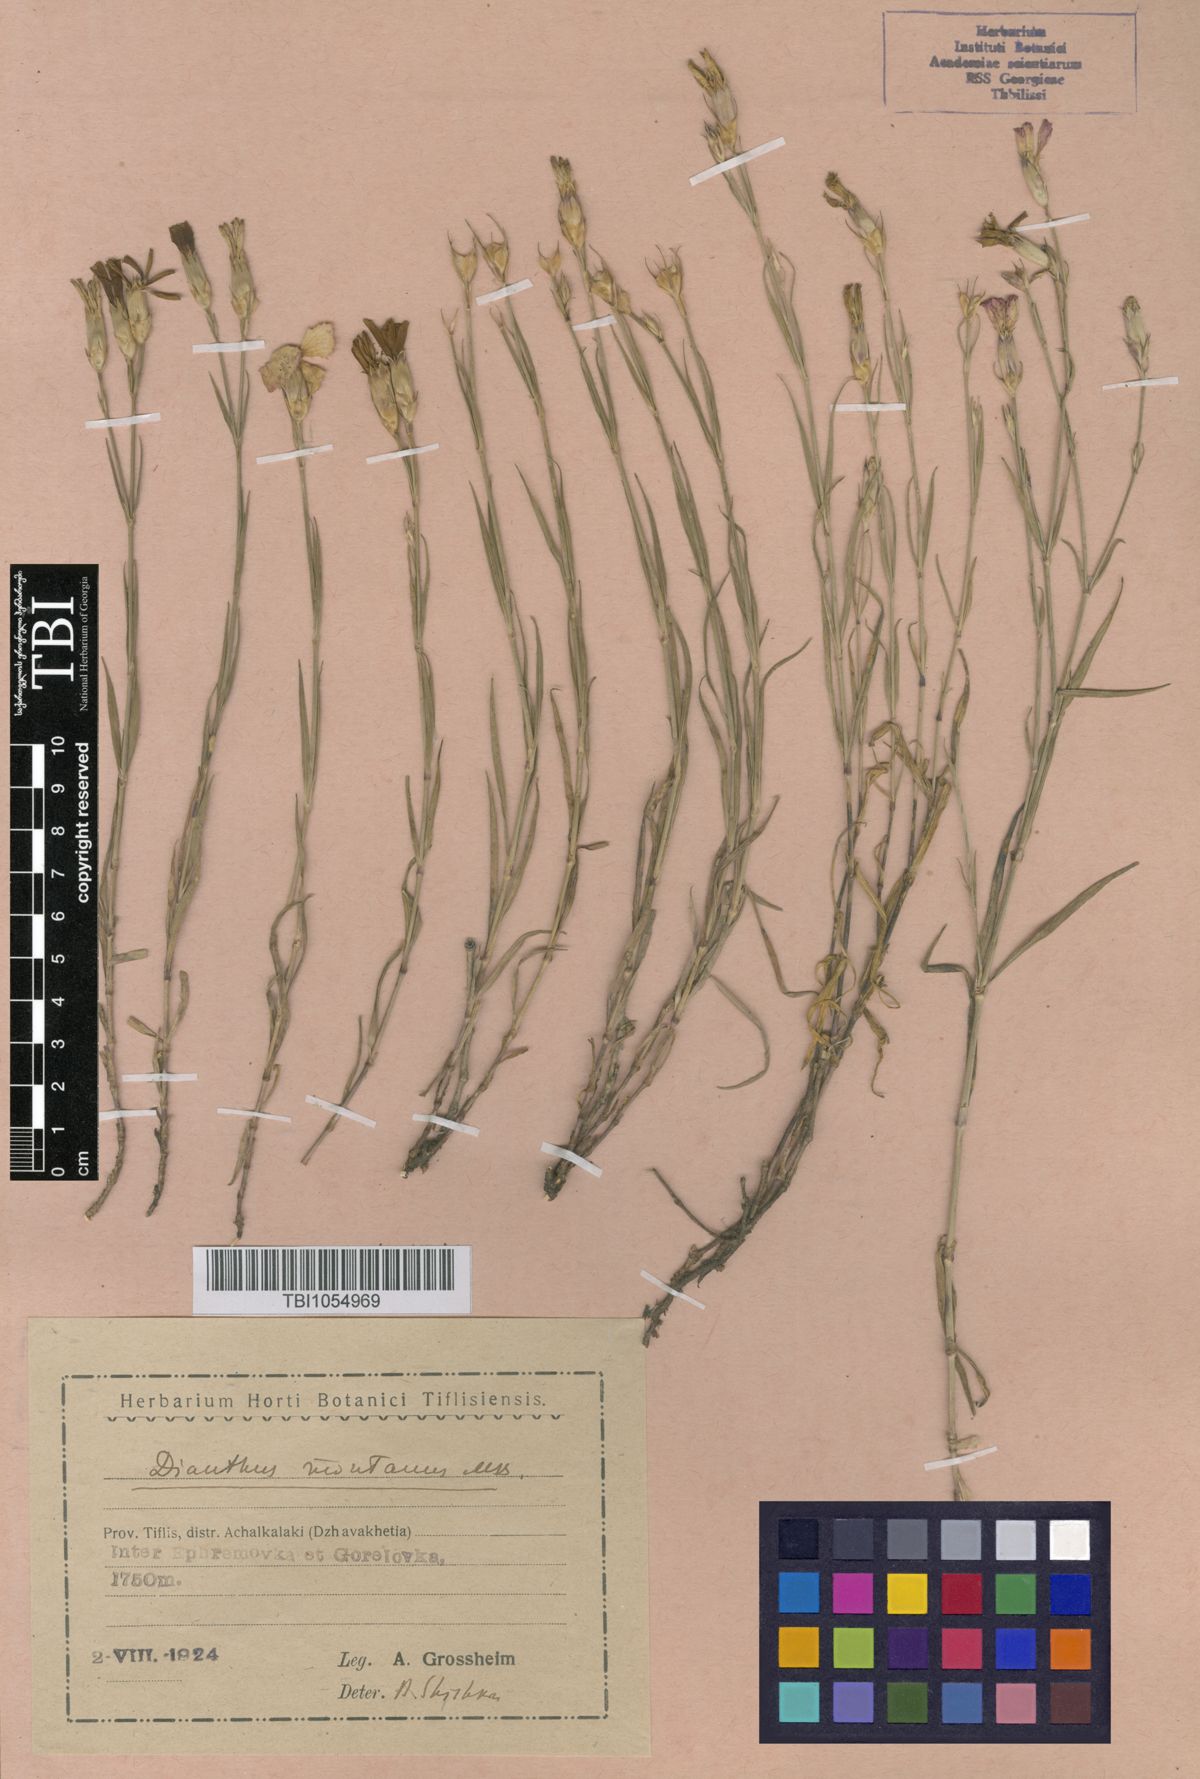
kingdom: Plantae
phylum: Tracheophyta
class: Magnoliopsida
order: Caryophyllales
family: Caryophyllaceae
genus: Dianthus
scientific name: Dianthus caucaseus
